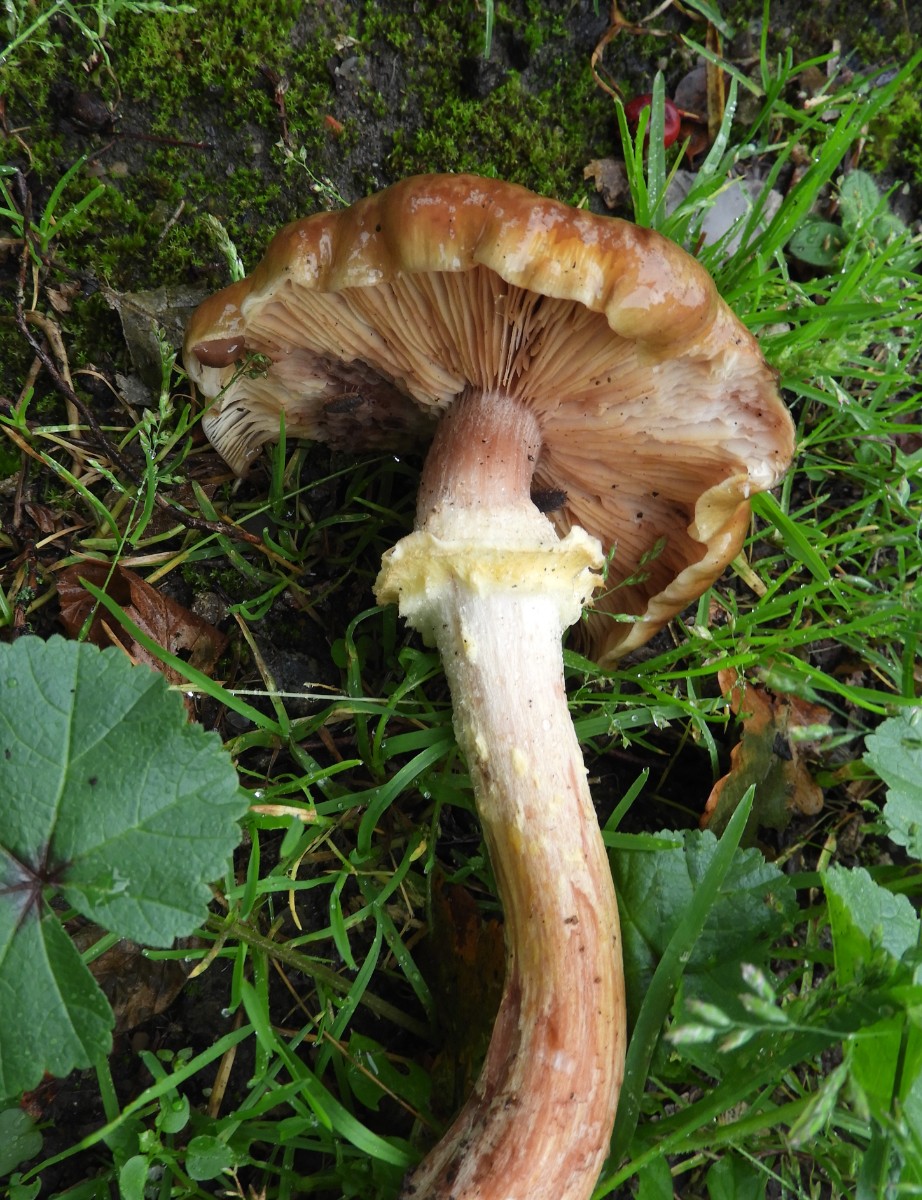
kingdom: Fungi
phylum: Basidiomycota
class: Agaricomycetes
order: Agaricales
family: Physalacriaceae
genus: Armillaria
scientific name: Armillaria lutea
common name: køllestokket honningsvamp
